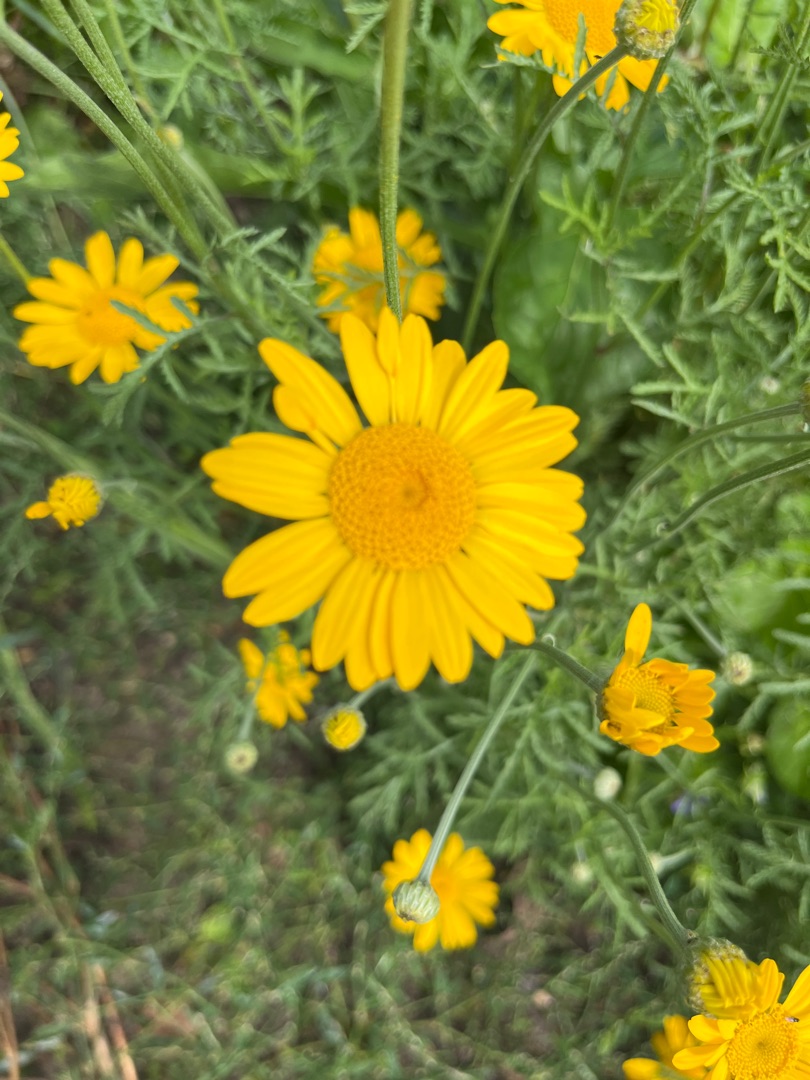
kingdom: Plantae
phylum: Tracheophyta
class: Magnoliopsida
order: Asterales
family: Asteraceae
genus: Cota
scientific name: Cota tinctoria
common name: Farve-gåseurt
